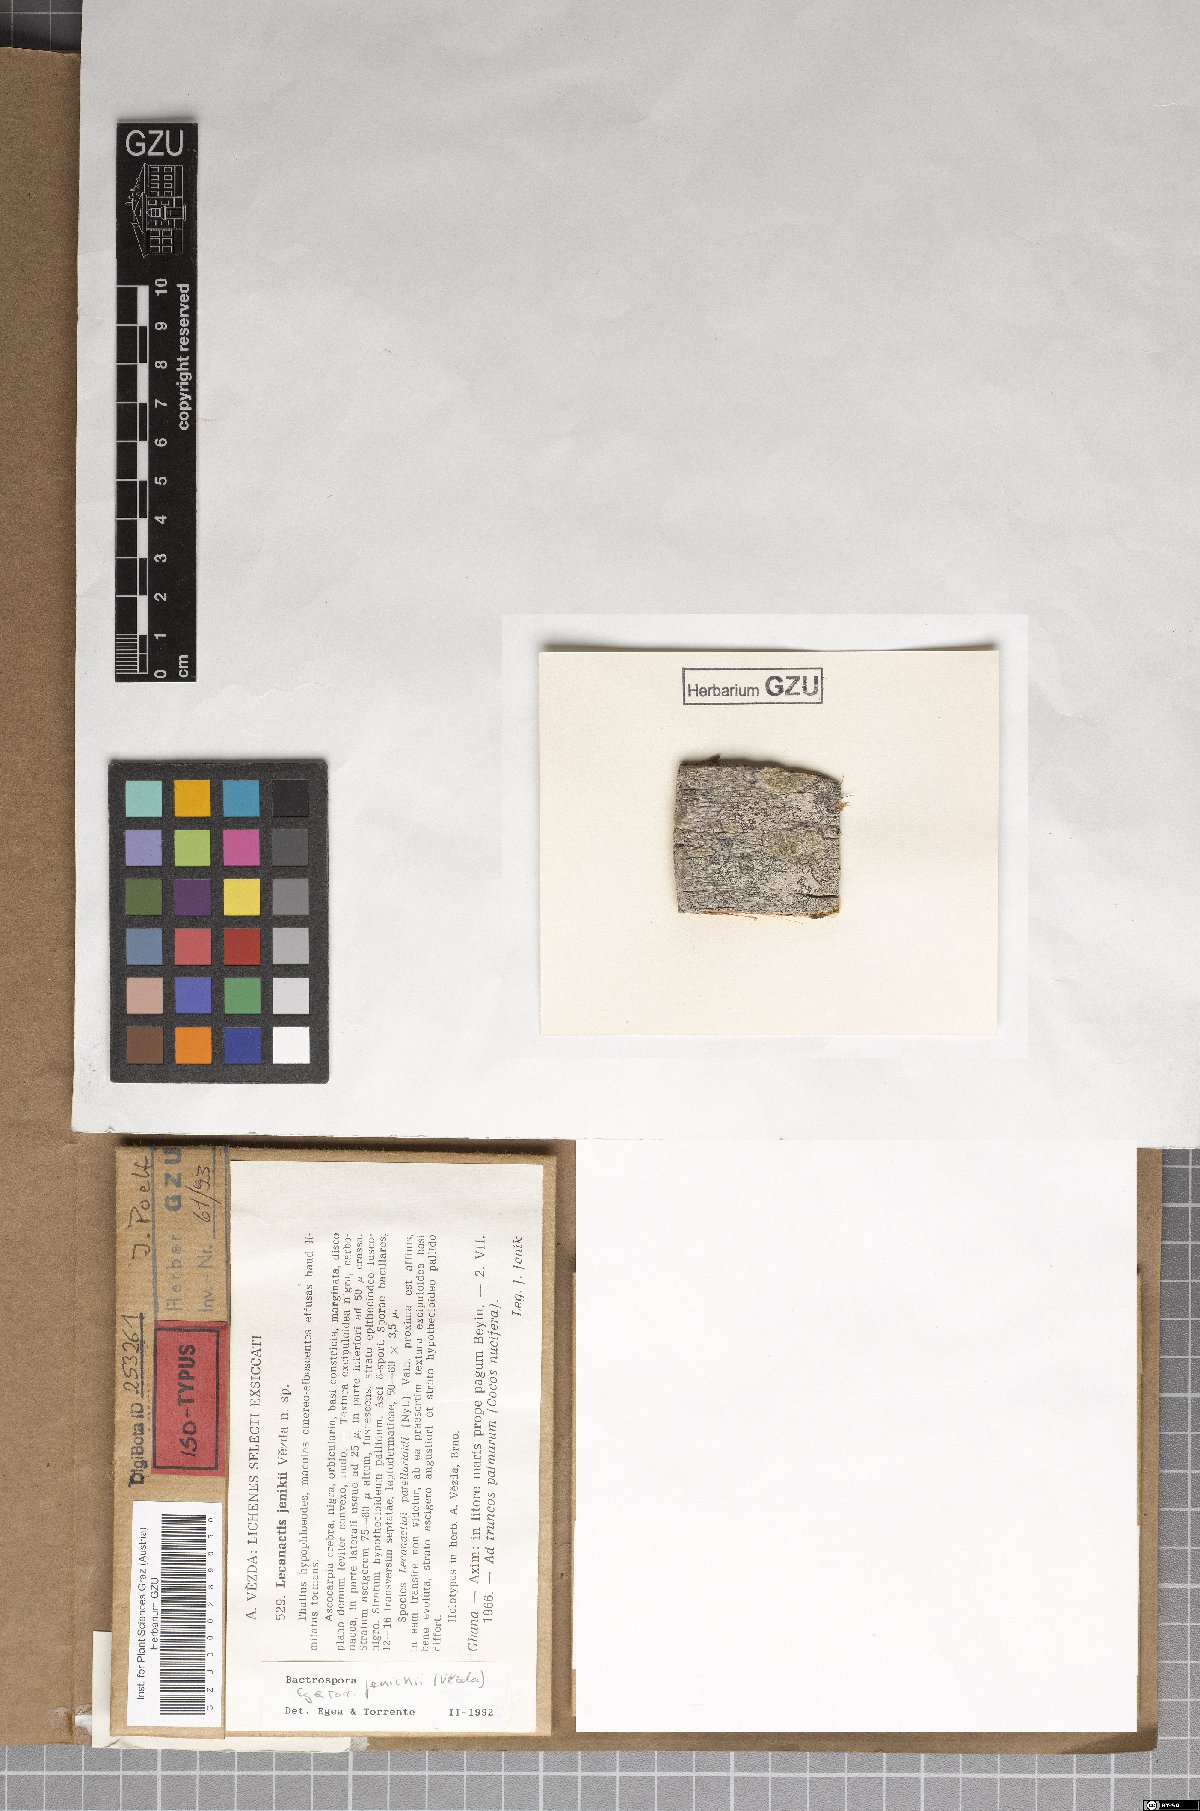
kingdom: Fungi
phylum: Ascomycota
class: Arthoniomycetes
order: Arthoniales
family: Roccellaceae
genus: Bactrospora
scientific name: Bactrospora jenikii
